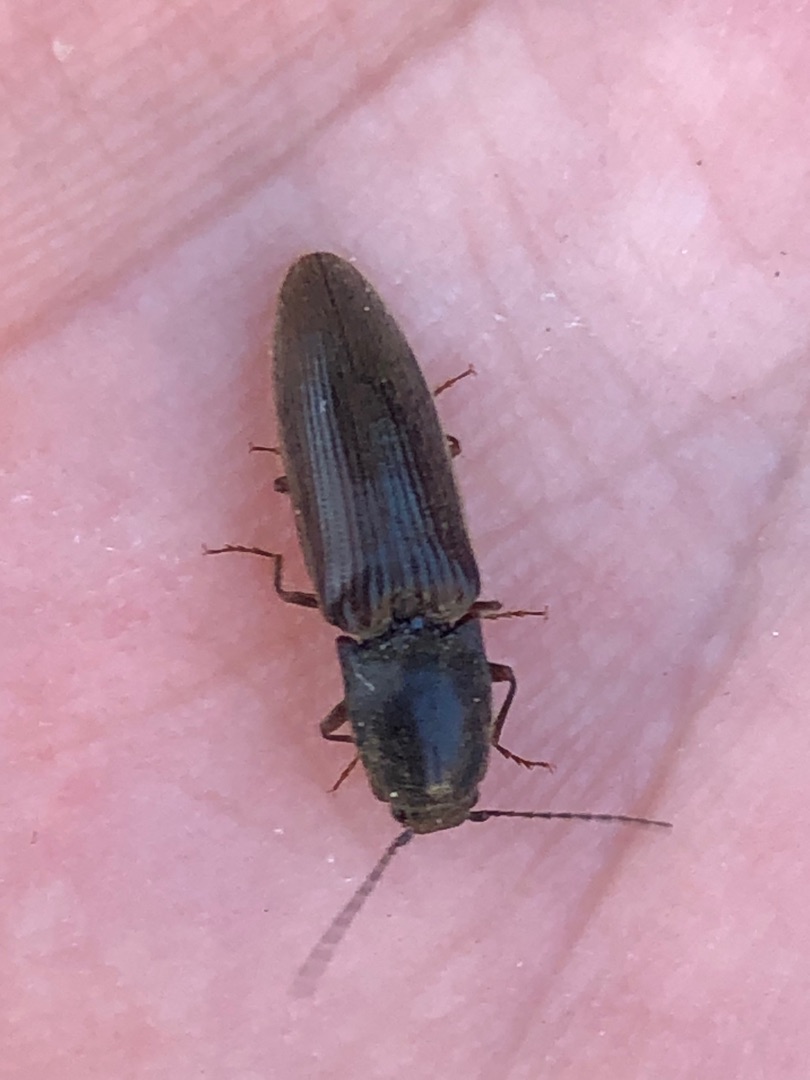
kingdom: Animalia
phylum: Arthropoda
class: Insecta
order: Coleoptera
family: Elateridae
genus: Athous
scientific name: Athous haemorrhoidalis
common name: Rødhalet busksmælder
